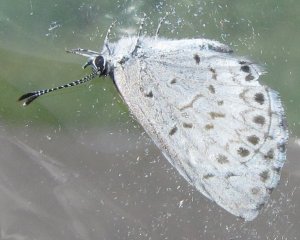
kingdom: Animalia
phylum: Arthropoda
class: Insecta
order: Lepidoptera
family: Lycaenidae
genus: Cyaniris
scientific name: Cyaniris neglecta
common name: Summer Azure
